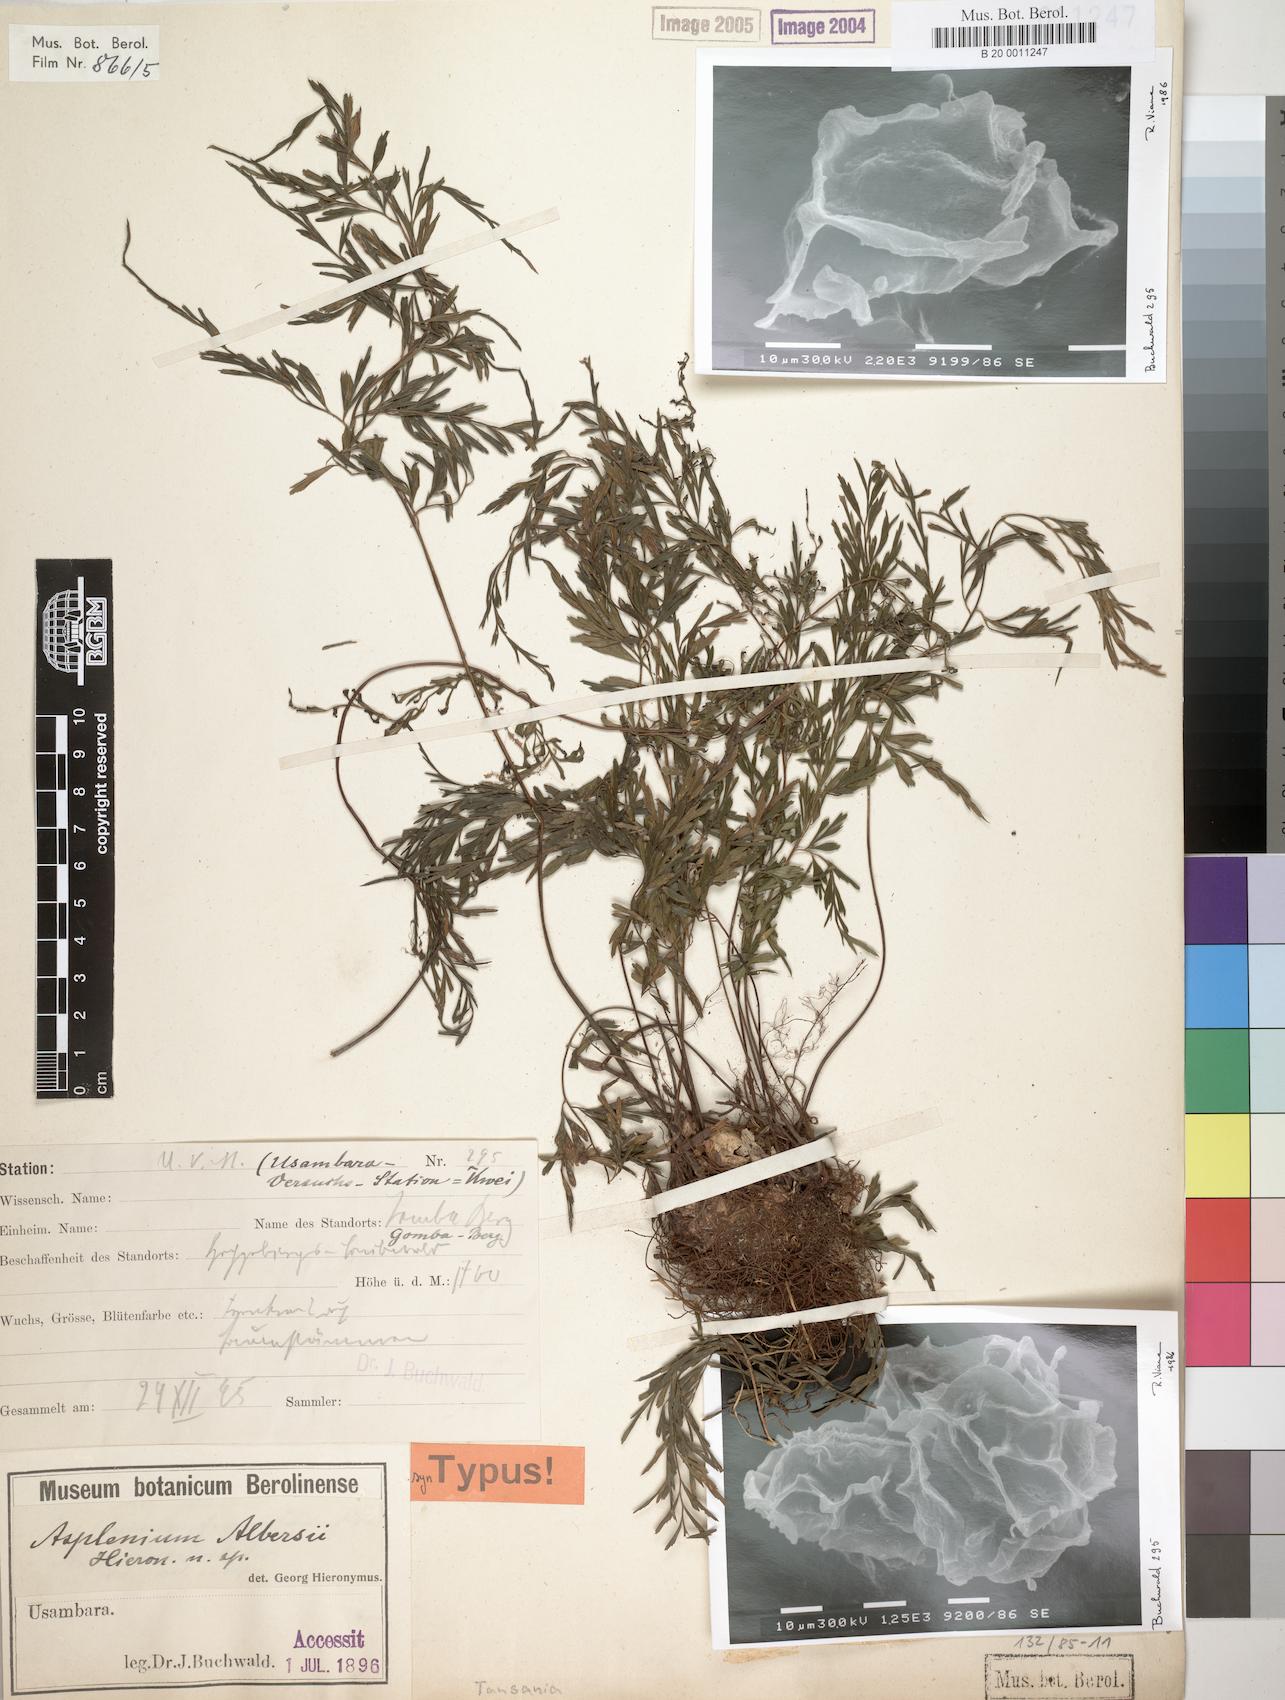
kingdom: Plantae
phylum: Tracheophyta
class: Polypodiopsida
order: Polypodiales
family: Aspleniaceae
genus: Asplenium
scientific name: Asplenium albersii
